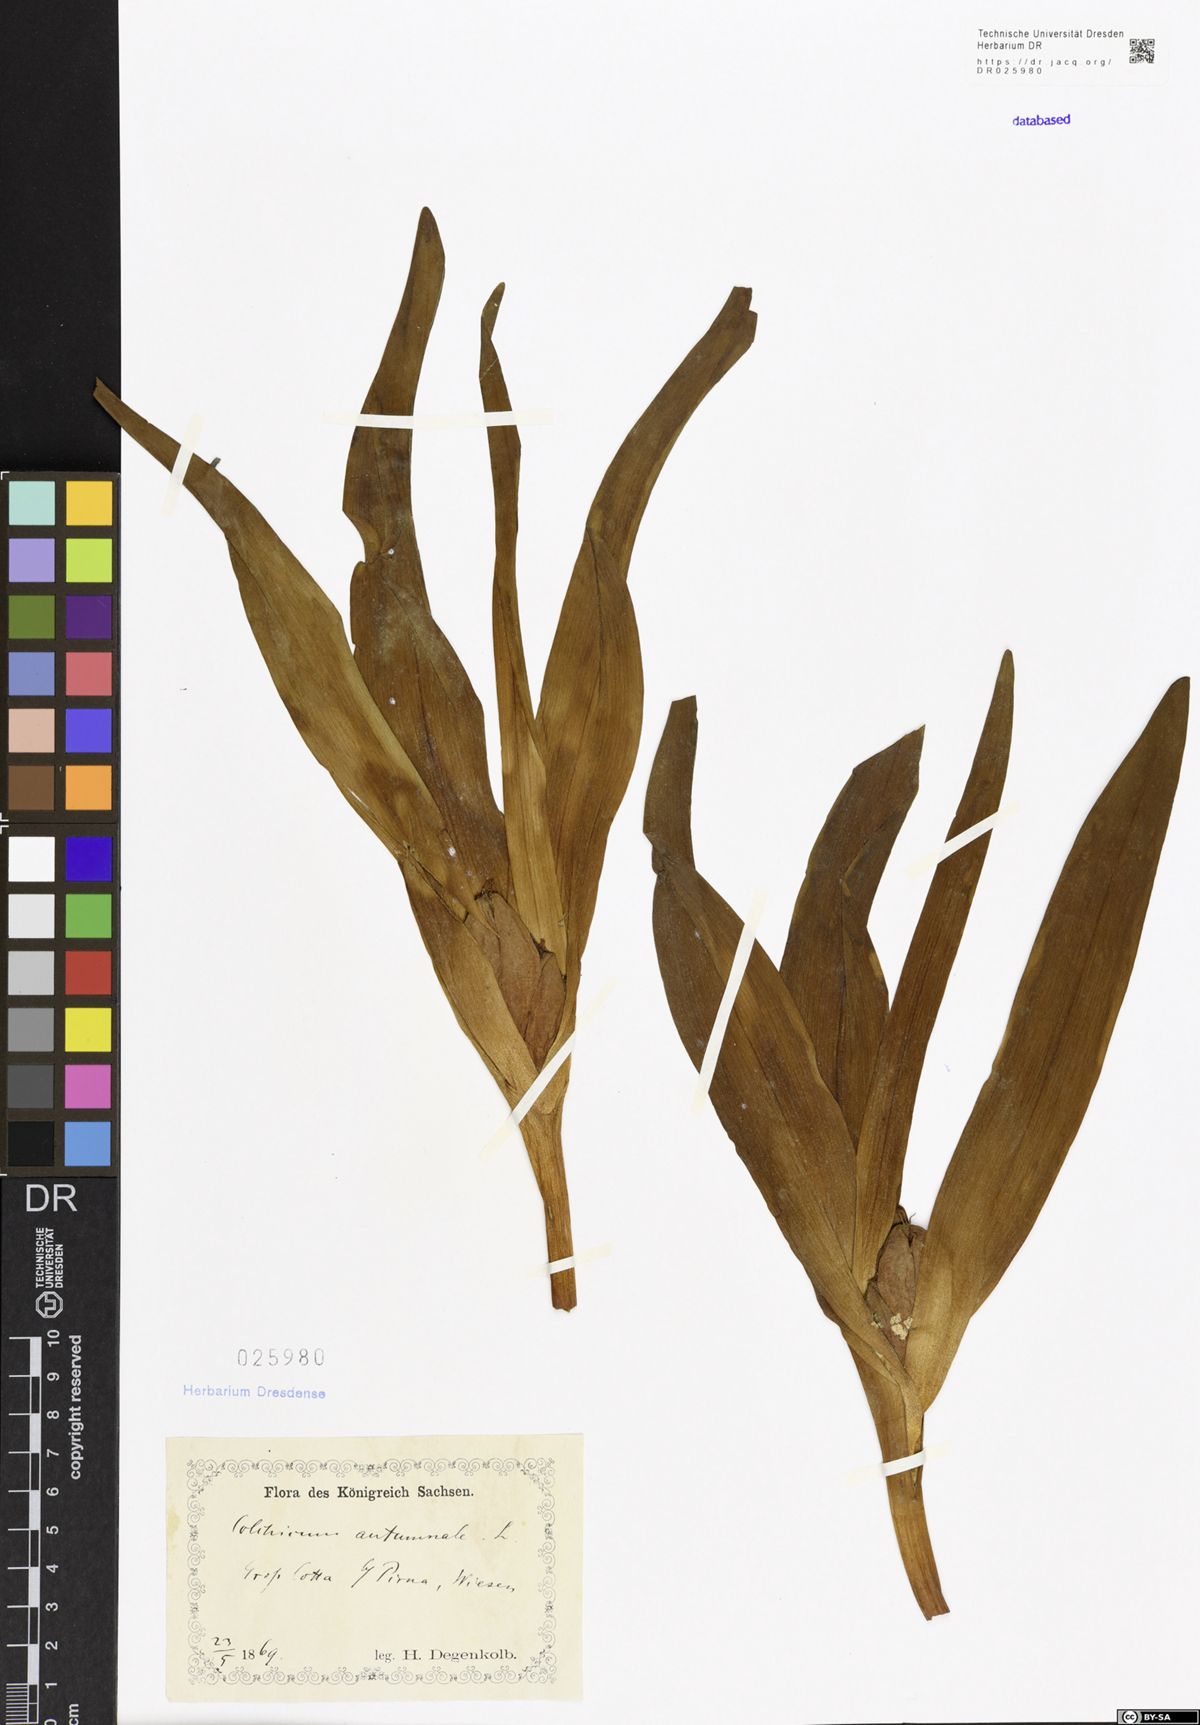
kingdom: Plantae
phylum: Tracheophyta
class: Liliopsida
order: Liliales
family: Colchicaceae
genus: Colchicum
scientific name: Colchicum autumnale
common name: Autumn crocus
